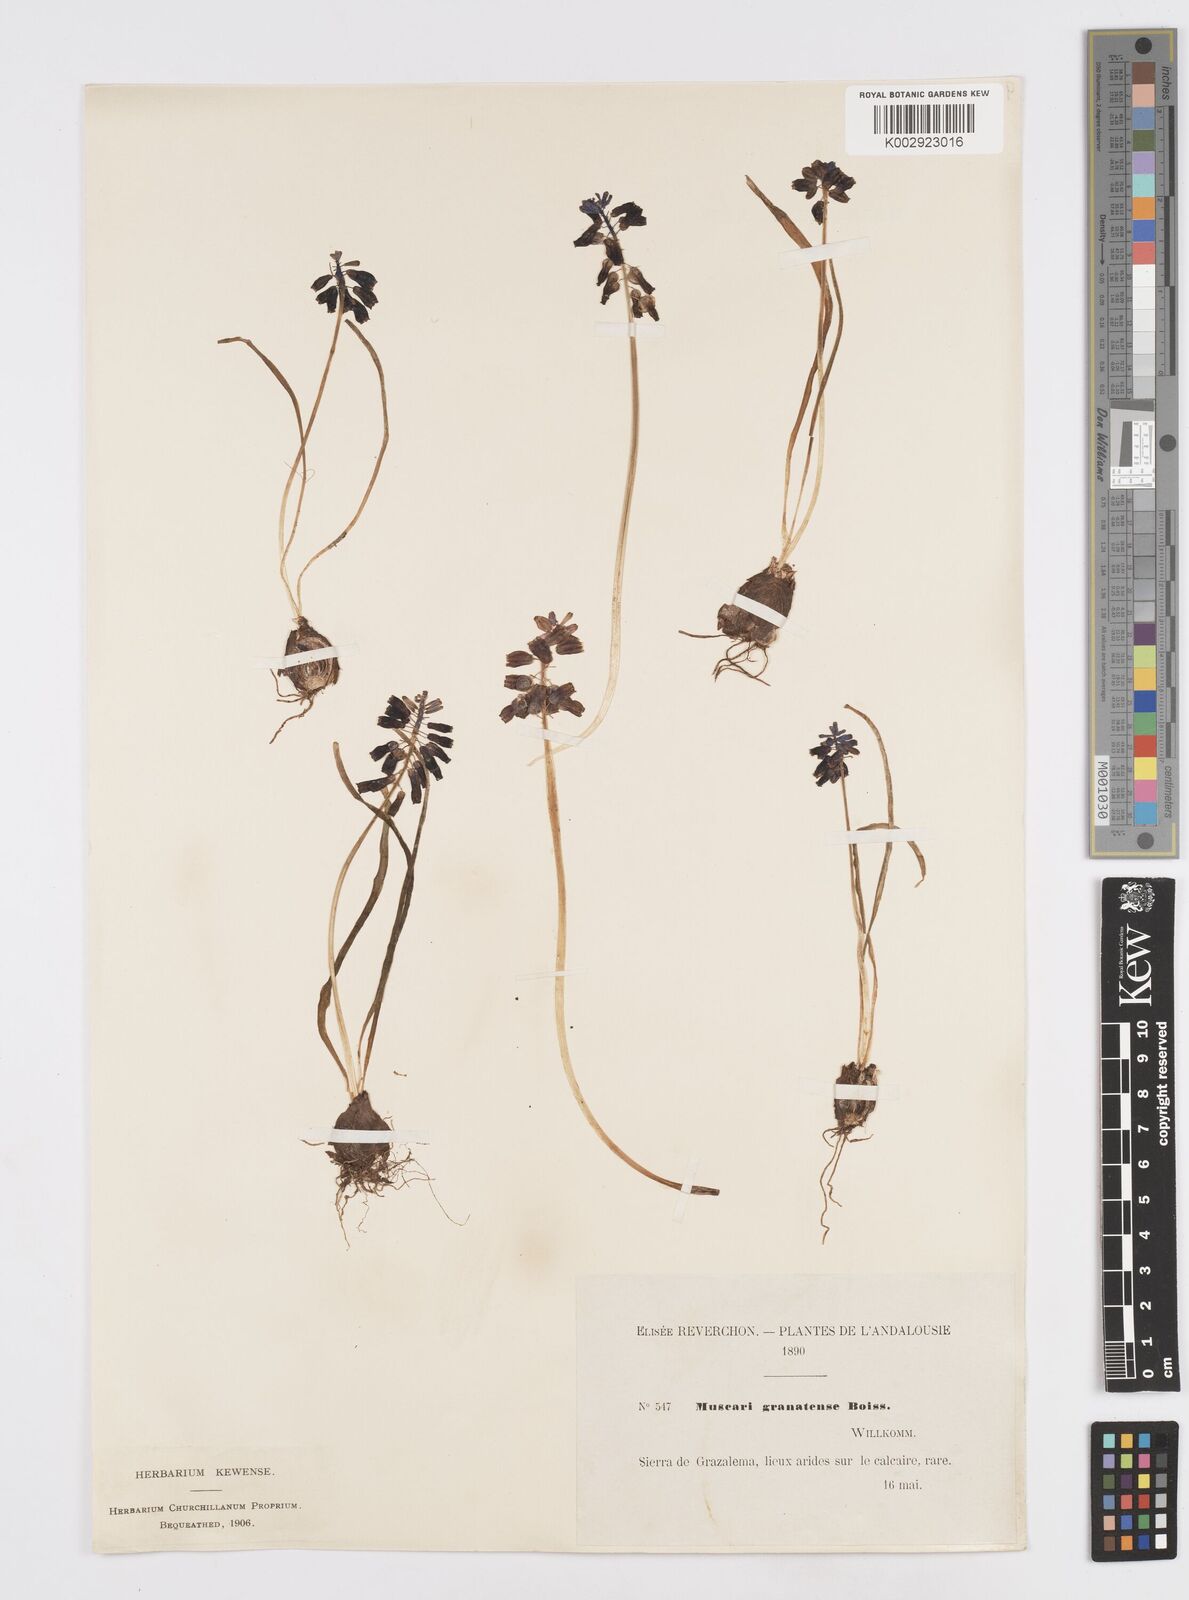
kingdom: Plantae
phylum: Tracheophyta
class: Liliopsida
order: Asparagales
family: Asparagaceae
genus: Muscari
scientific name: Muscari neglectum
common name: Grape-hyacinth
